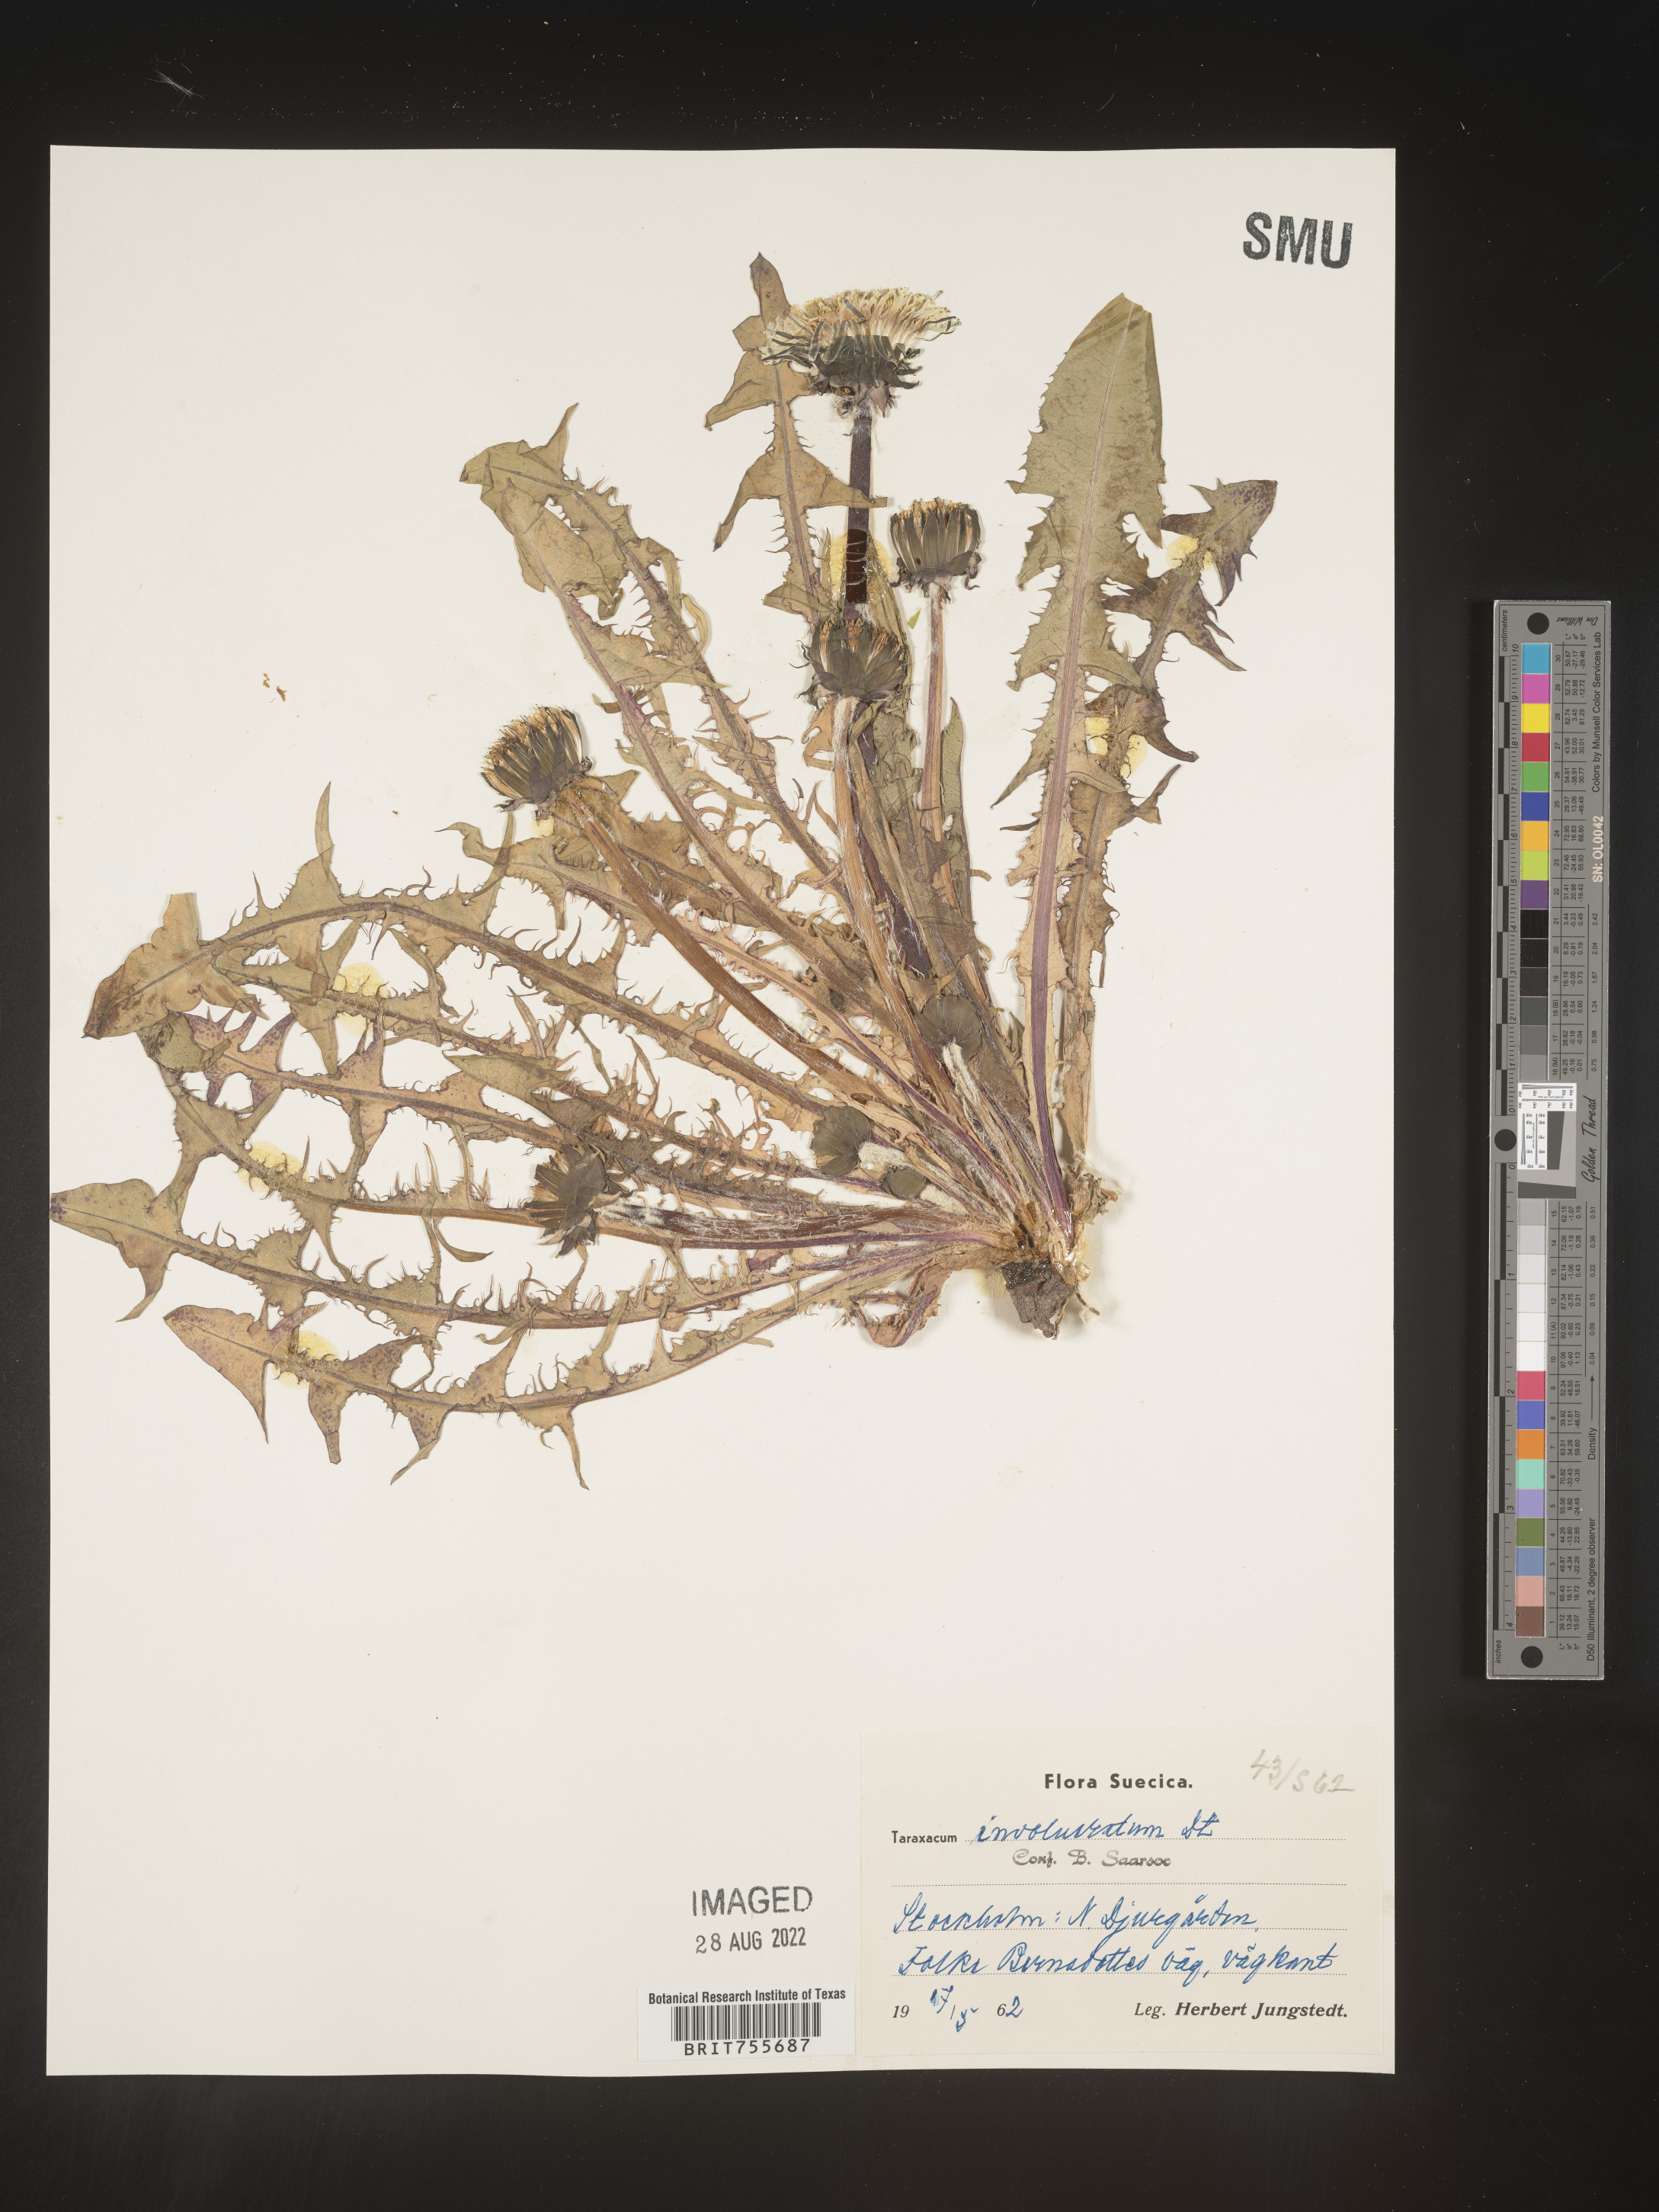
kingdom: Plantae
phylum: Tracheophyta
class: Magnoliopsida
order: Asterales
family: Asteraceae
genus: Taraxacum
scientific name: Taraxacum
